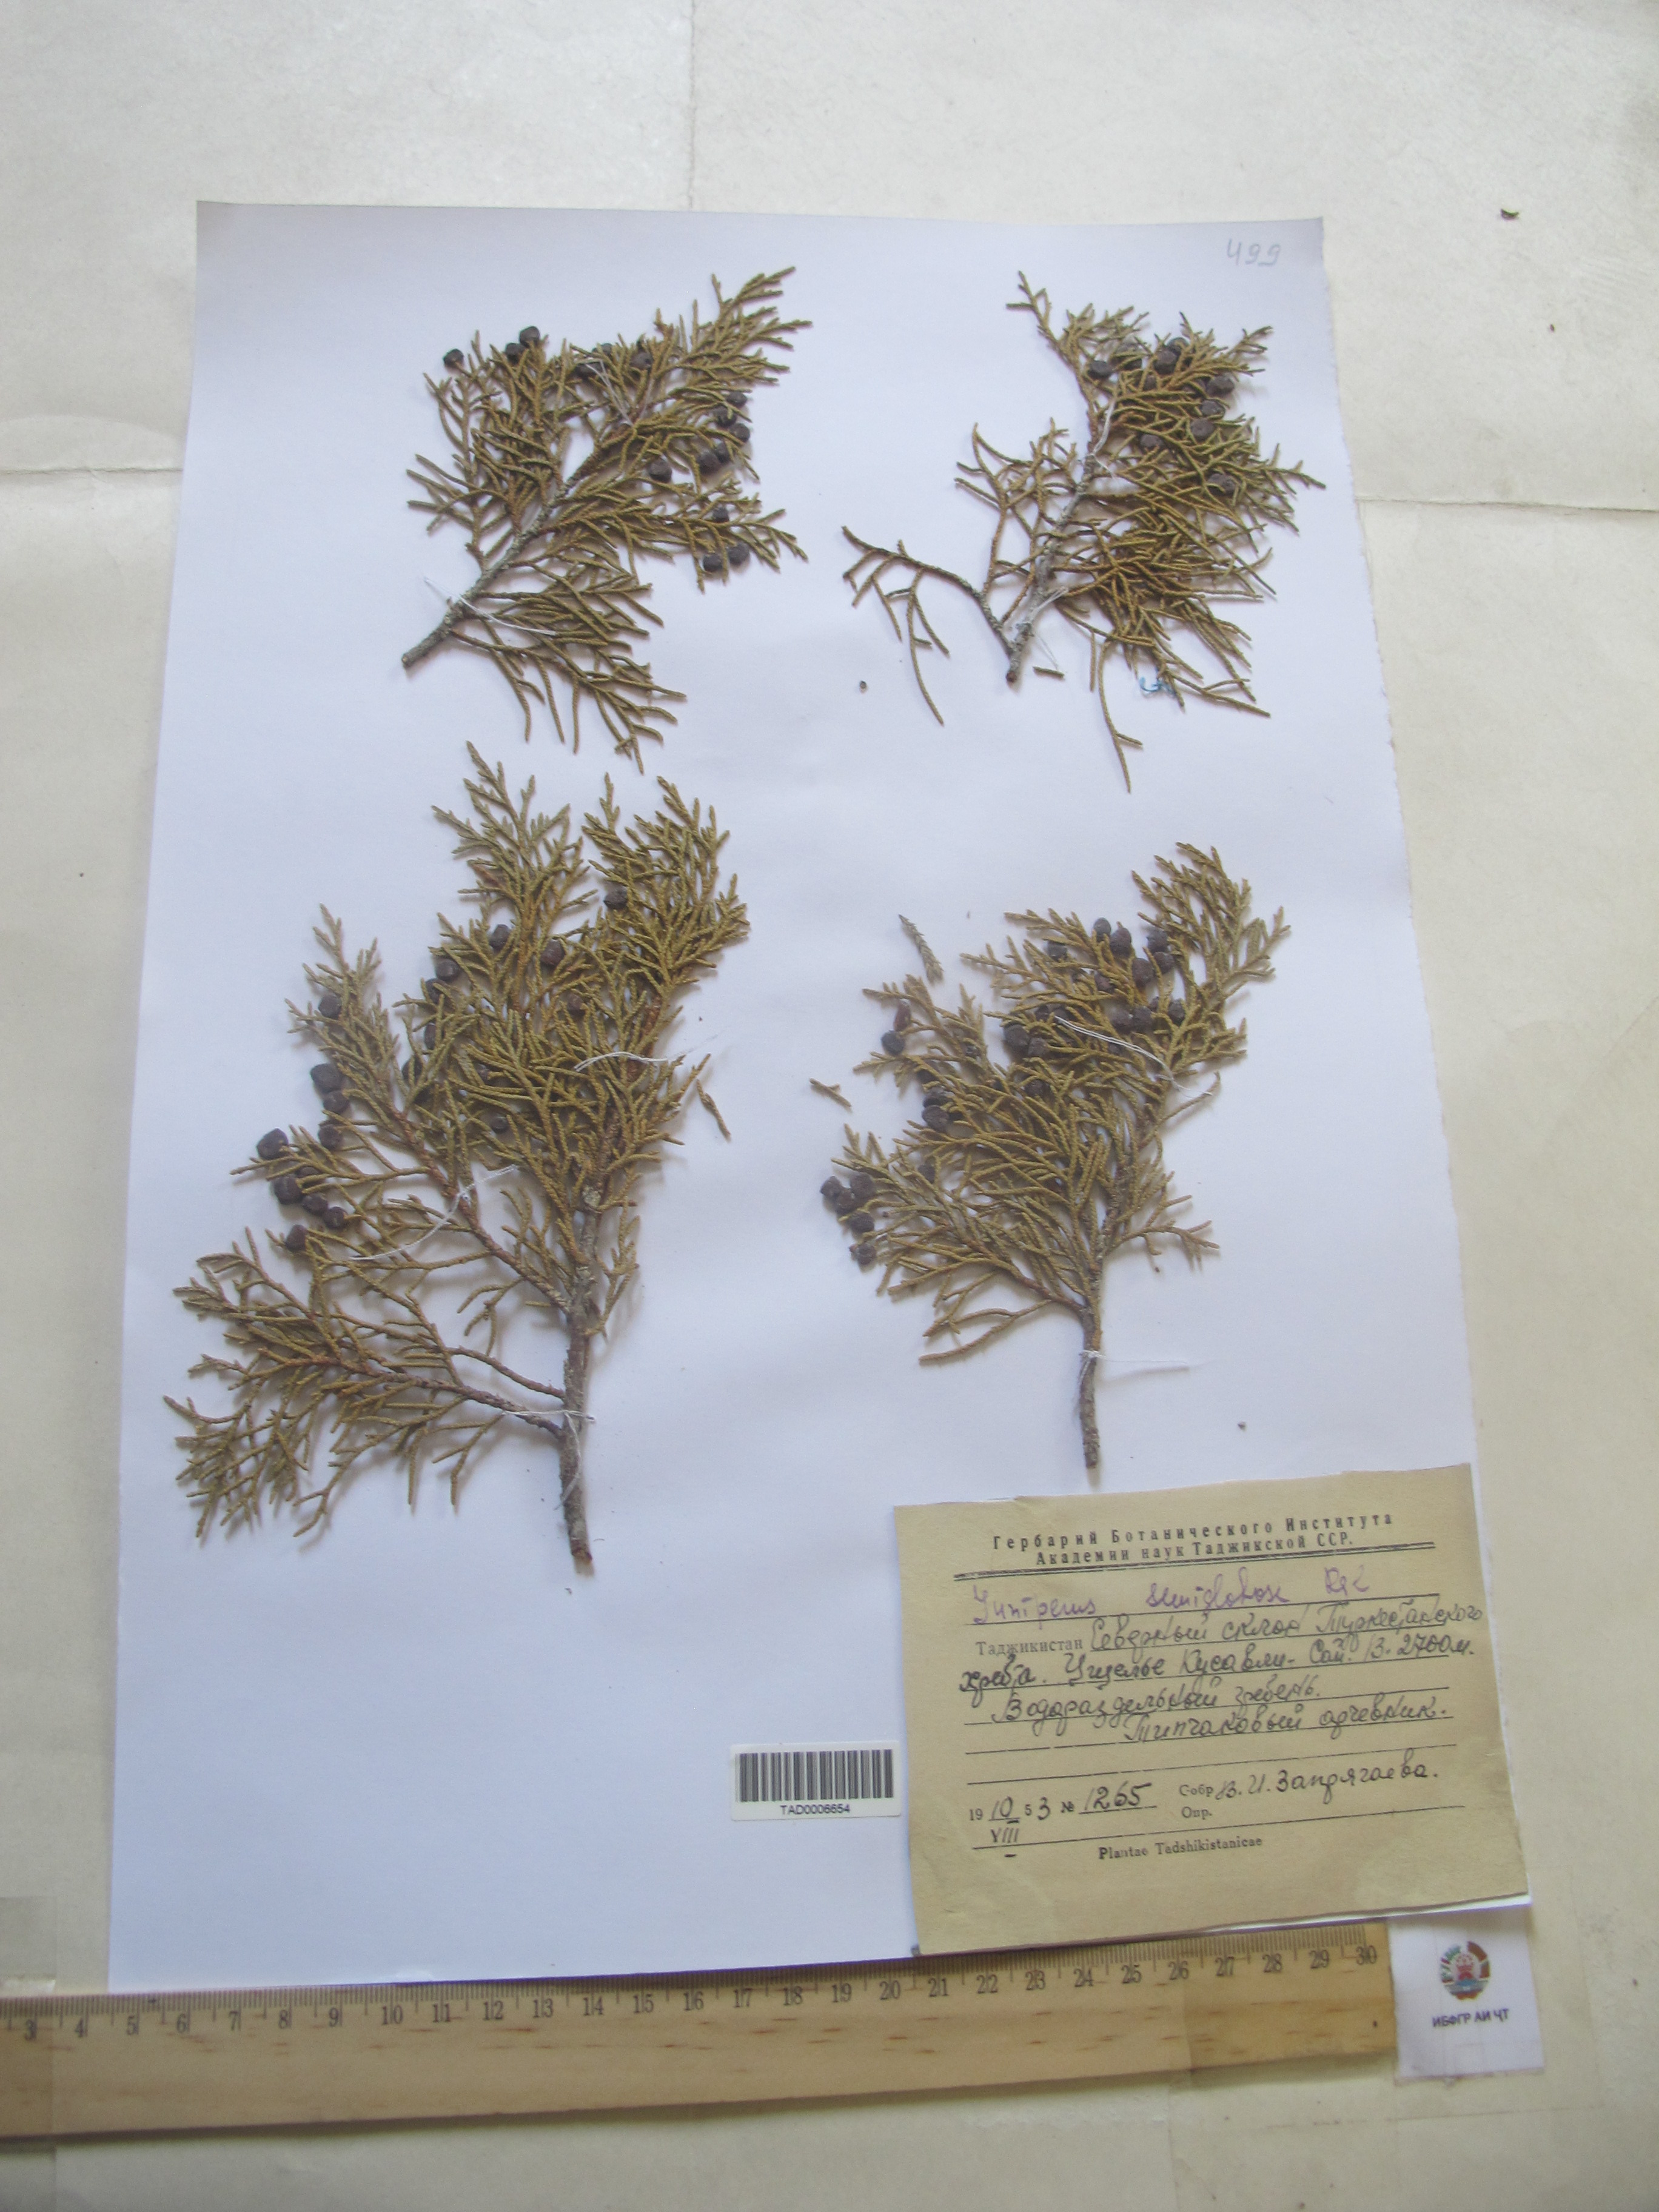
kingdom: Plantae
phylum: Tracheophyta
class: Pinopsida
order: Pinales
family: Cupressaceae
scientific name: Cupressaceae
